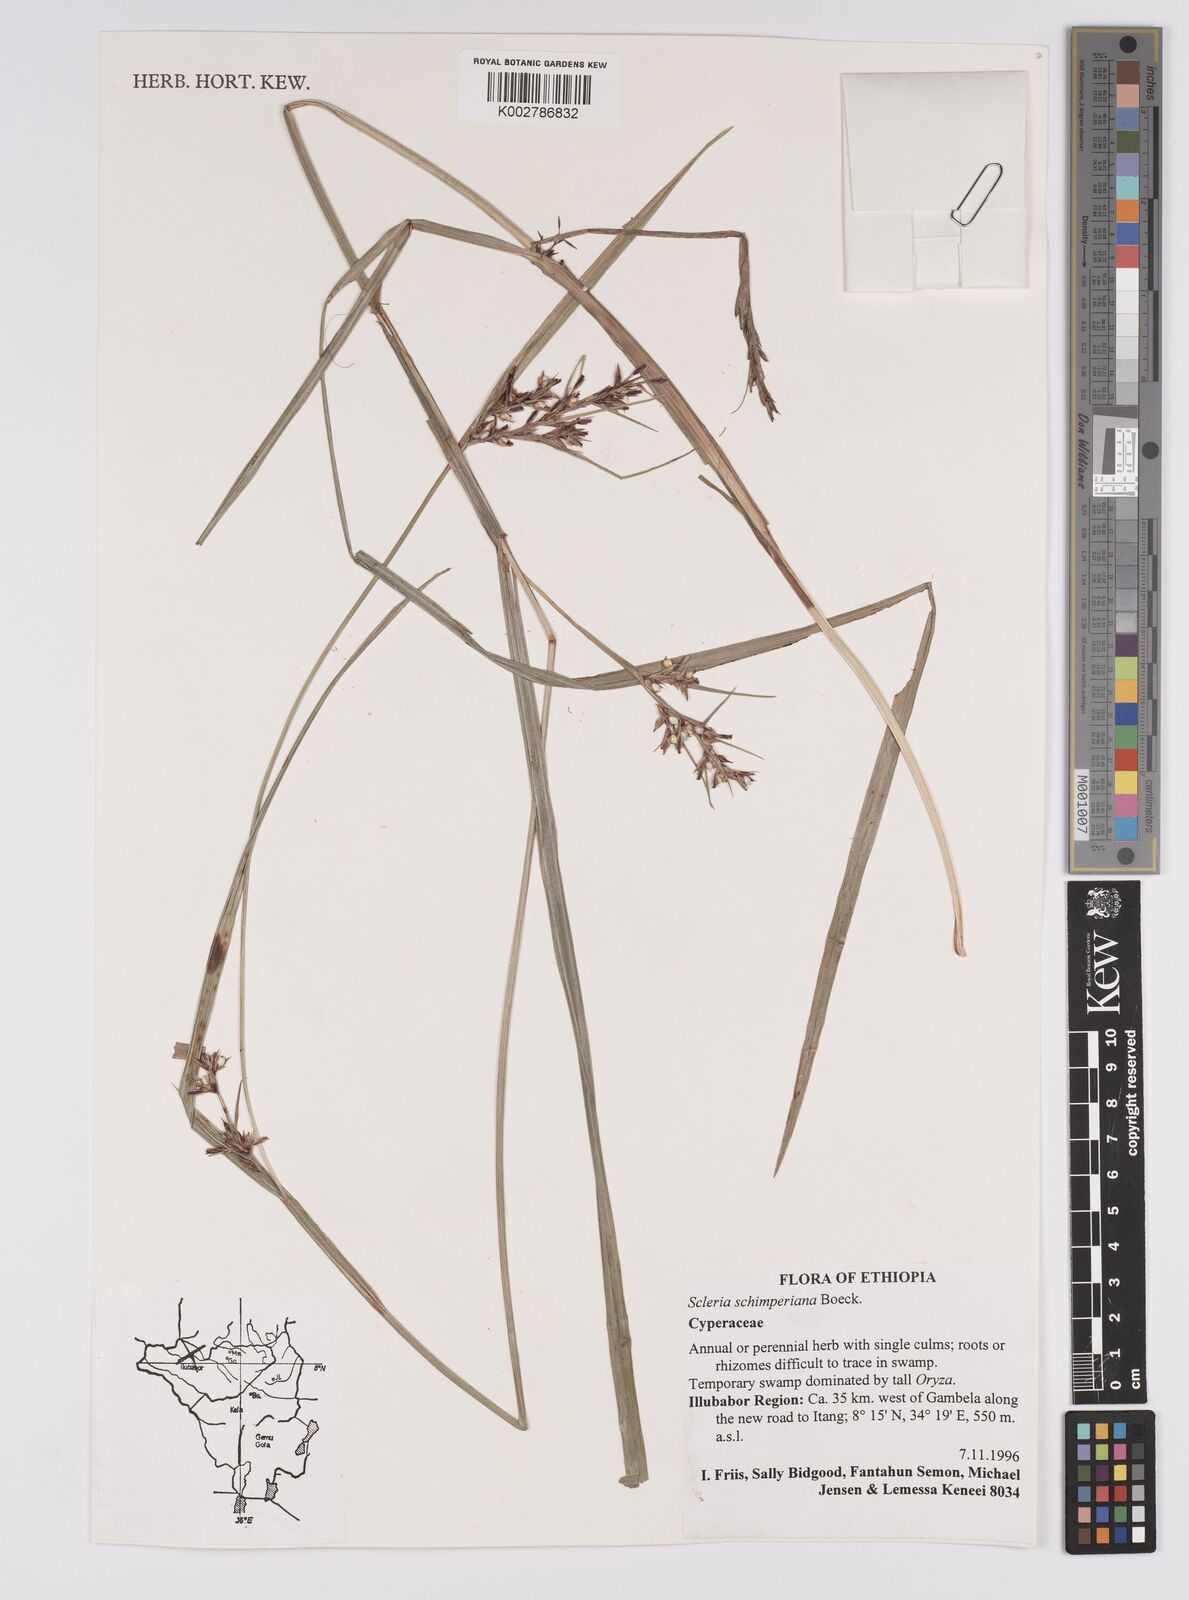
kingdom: Plantae
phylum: Tracheophyta
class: Liliopsida
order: Poales
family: Cyperaceae
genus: Scleria
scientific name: Scleria schimperiana
